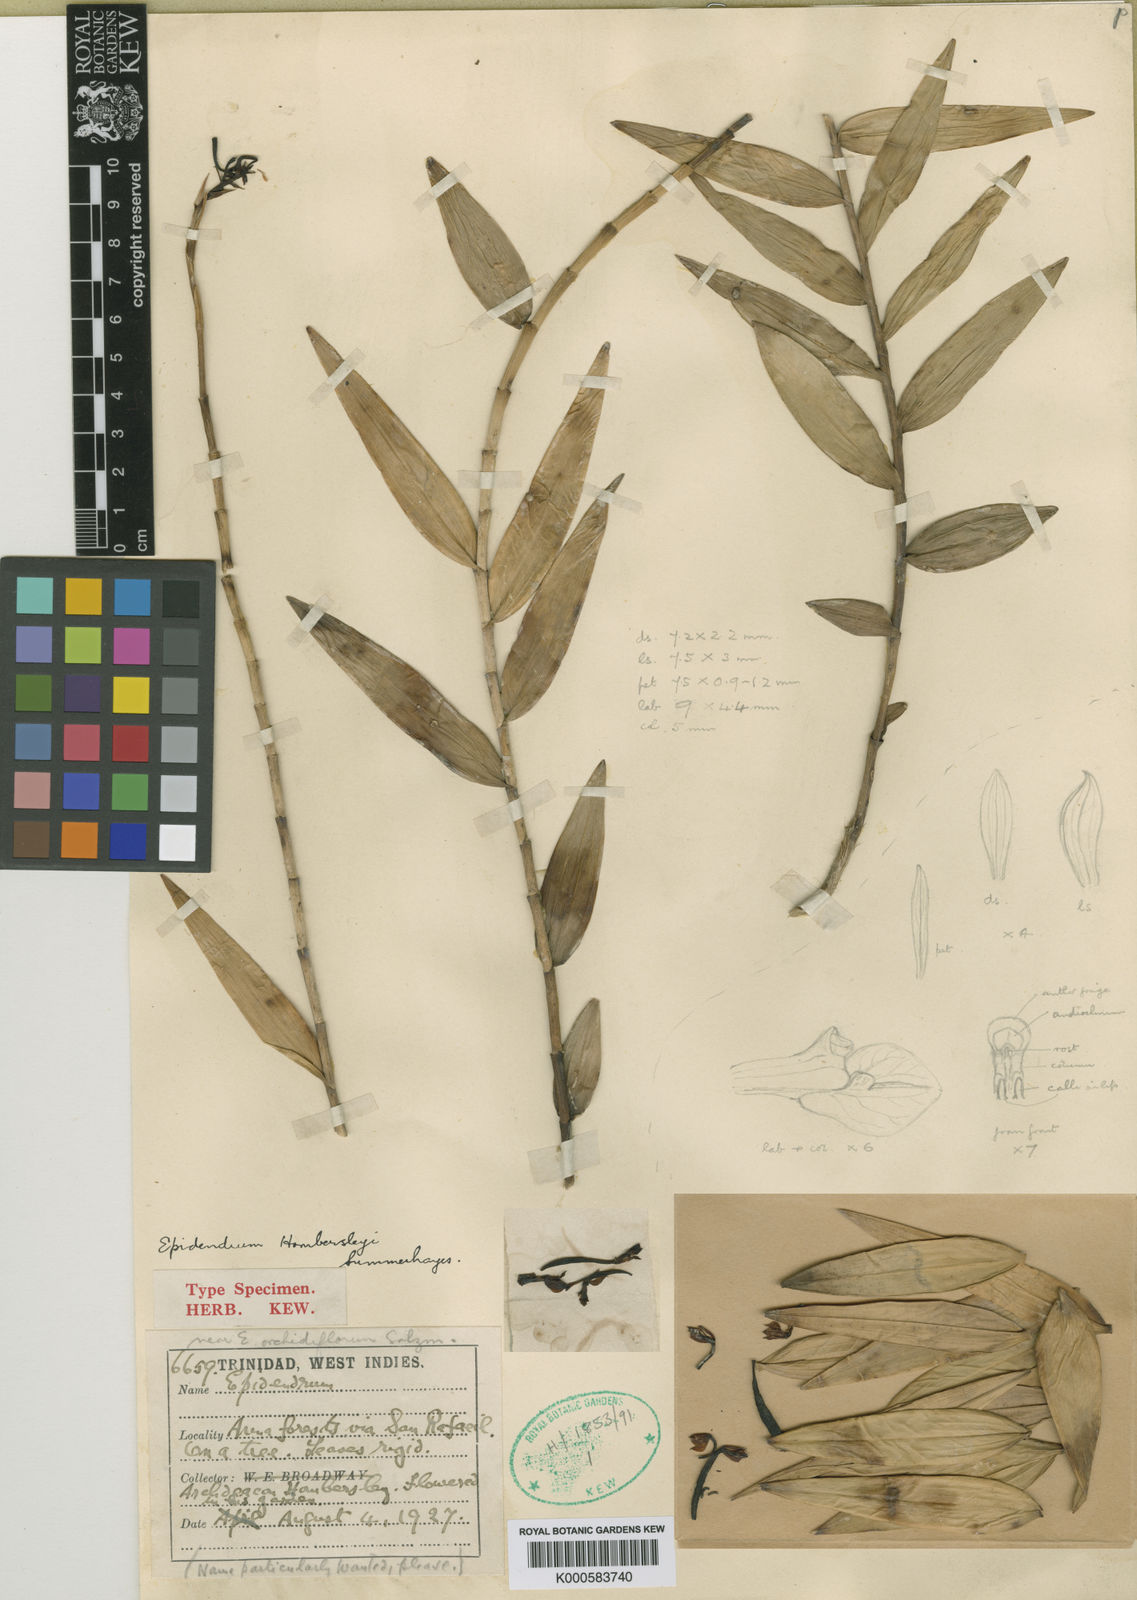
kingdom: Plantae
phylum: Tracheophyta
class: Liliopsida
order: Asparagales
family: Orchidaceae
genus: Encyclia
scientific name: Encyclia fucata
